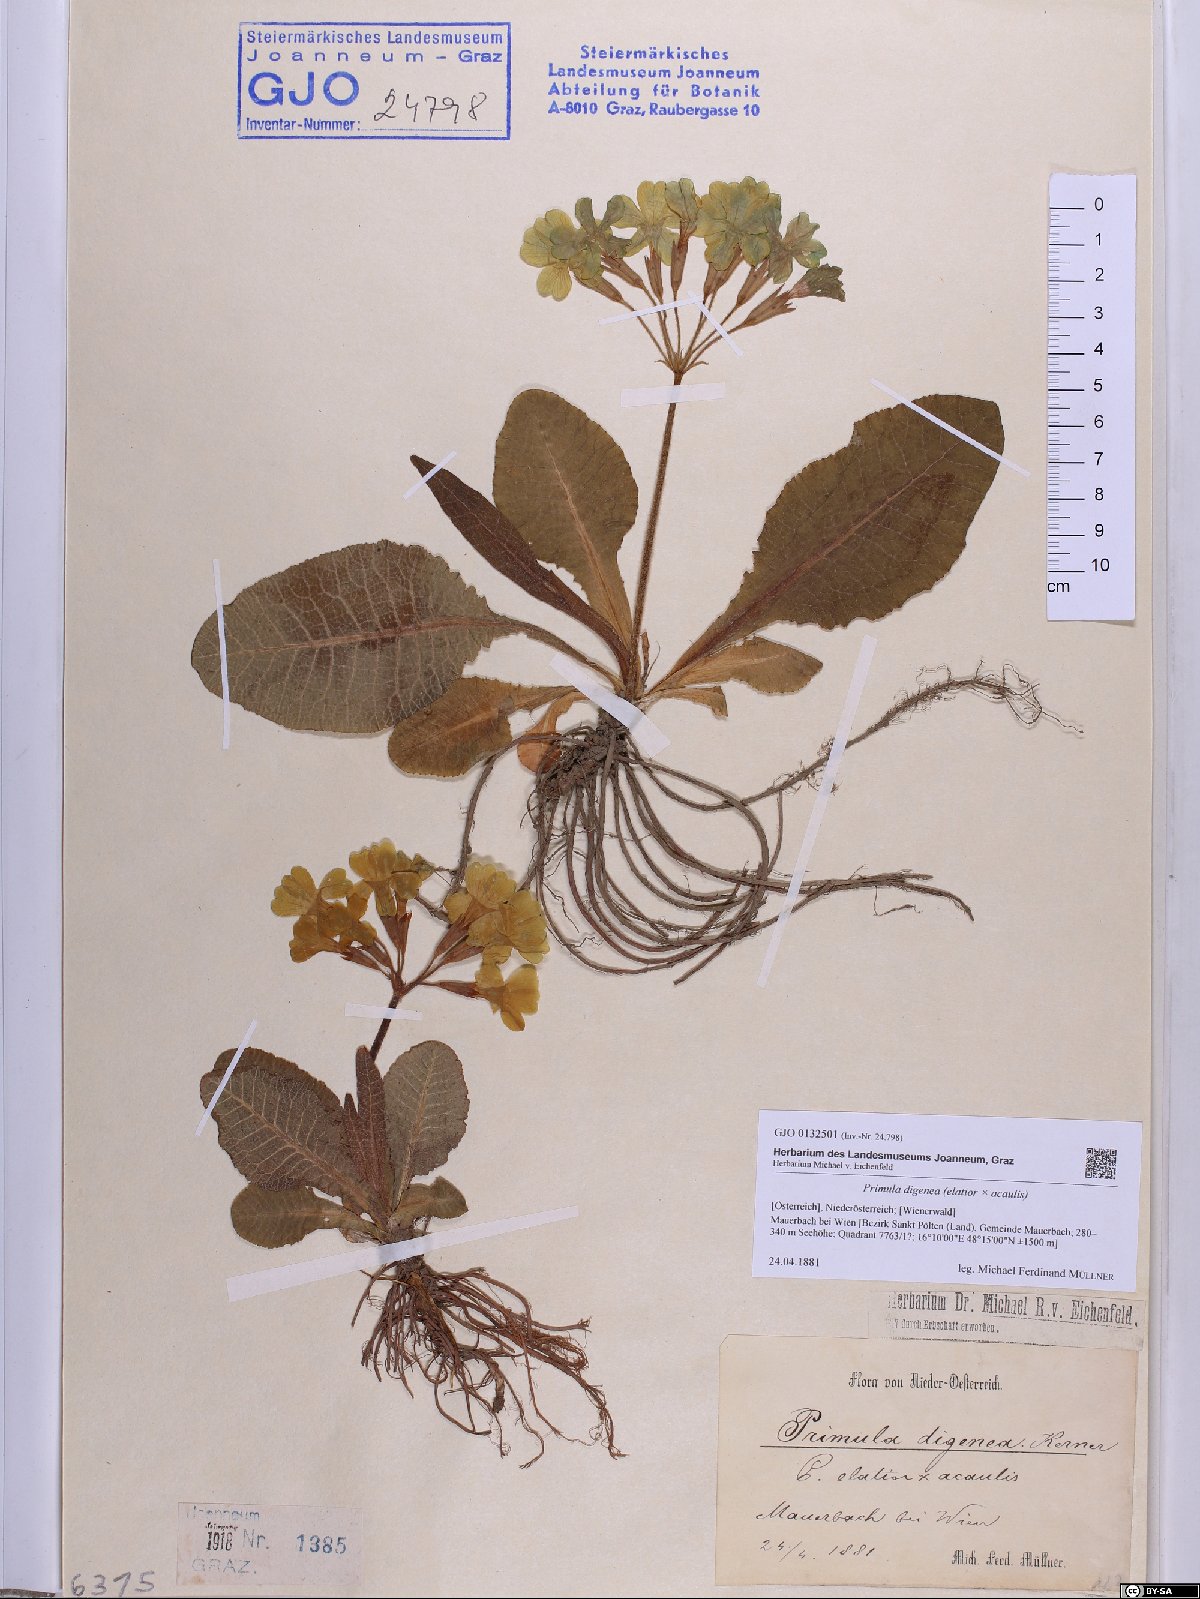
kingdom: Plantae
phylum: Tracheophyta
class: Magnoliopsida
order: Ericales
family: Primulaceae
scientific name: Primulaceae
